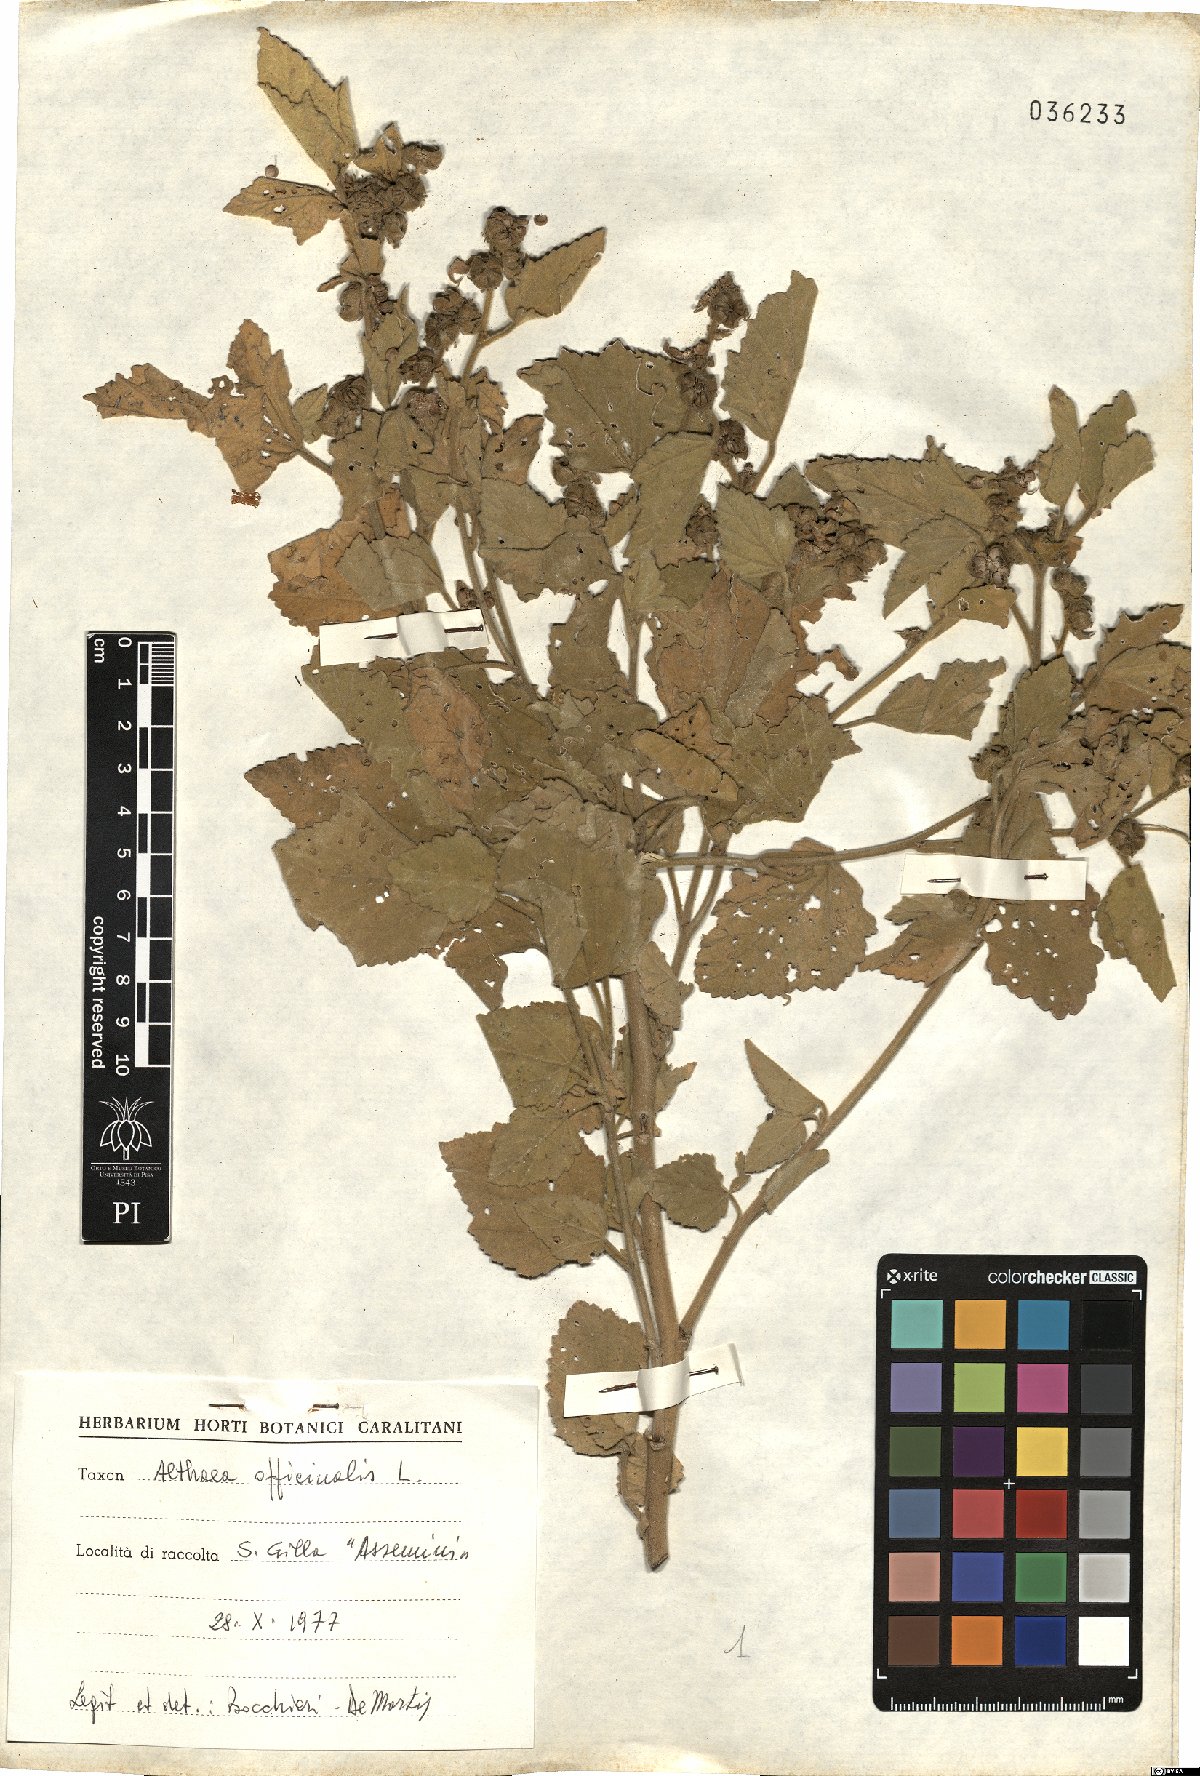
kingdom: Plantae
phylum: Tracheophyta
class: Magnoliopsida
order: Malvales
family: Malvaceae
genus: Althaea
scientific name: Althaea officinalis
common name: Marsh-mallow
